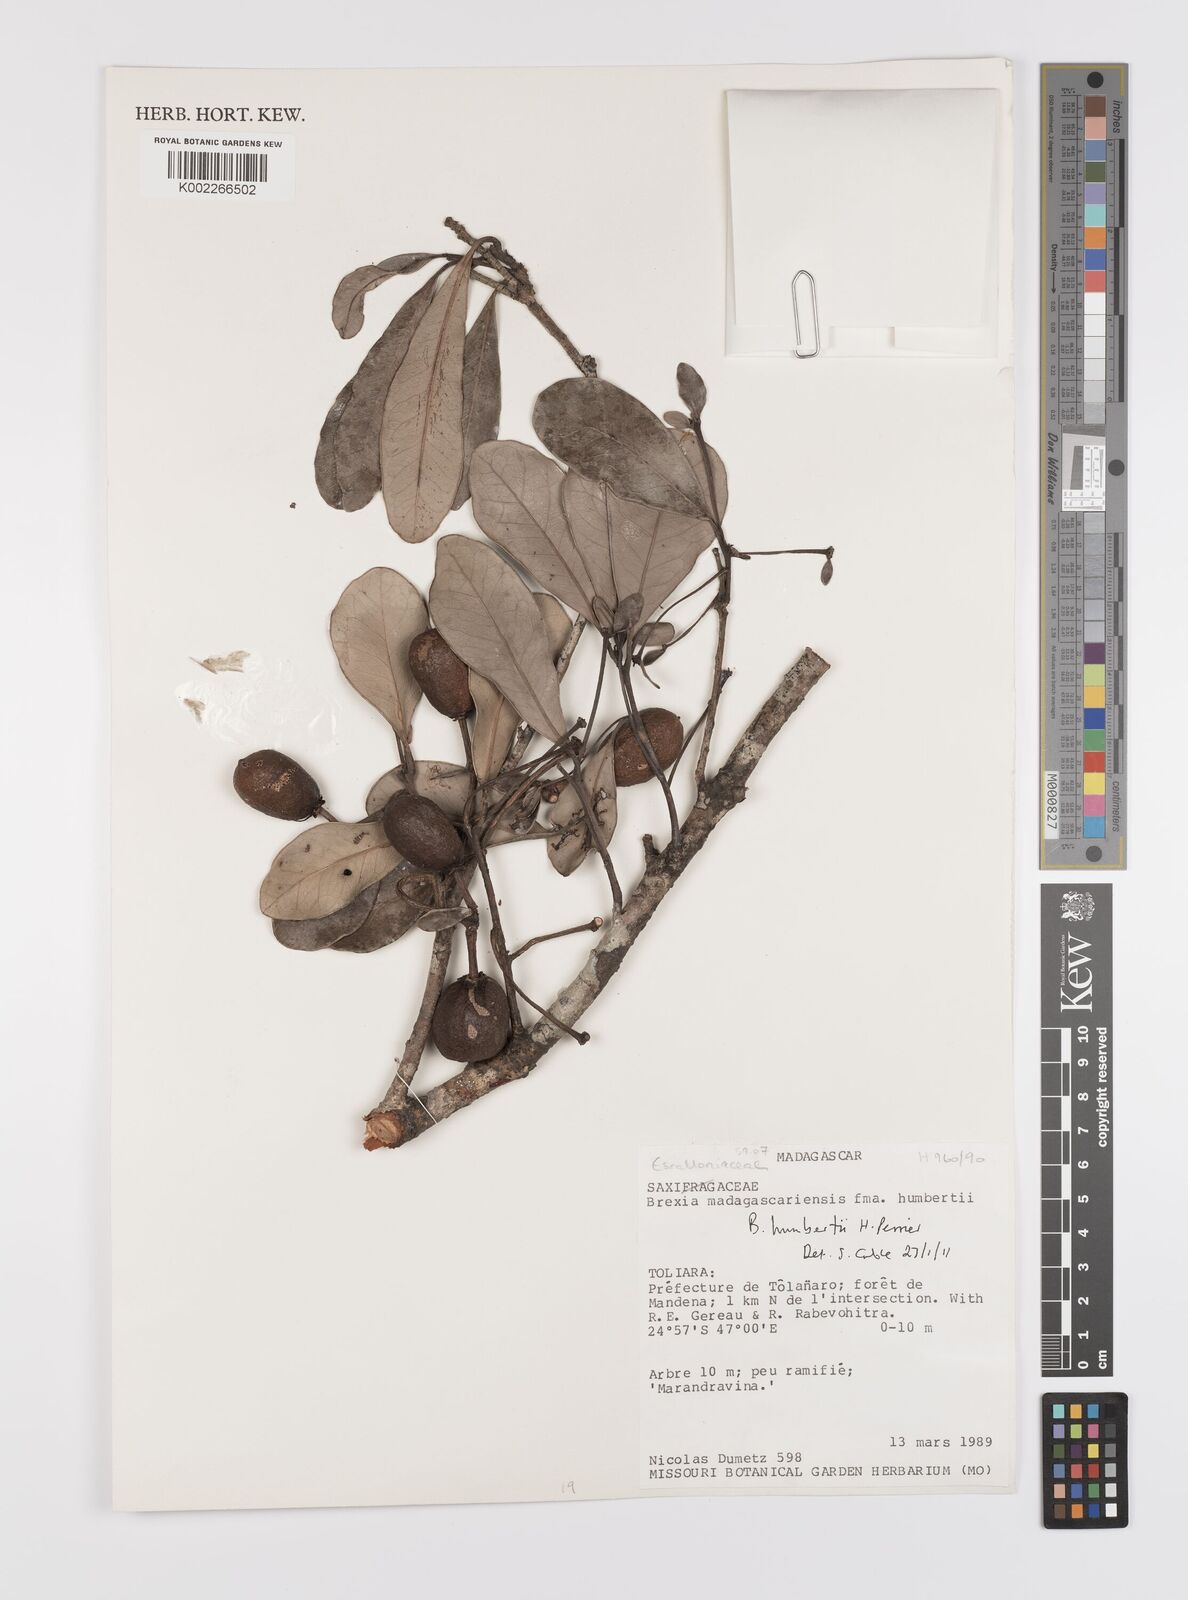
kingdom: Plantae
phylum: Tracheophyta
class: Magnoliopsida
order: Celastrales
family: Celastraceae
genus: Brexia
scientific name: Brexia humbertii
